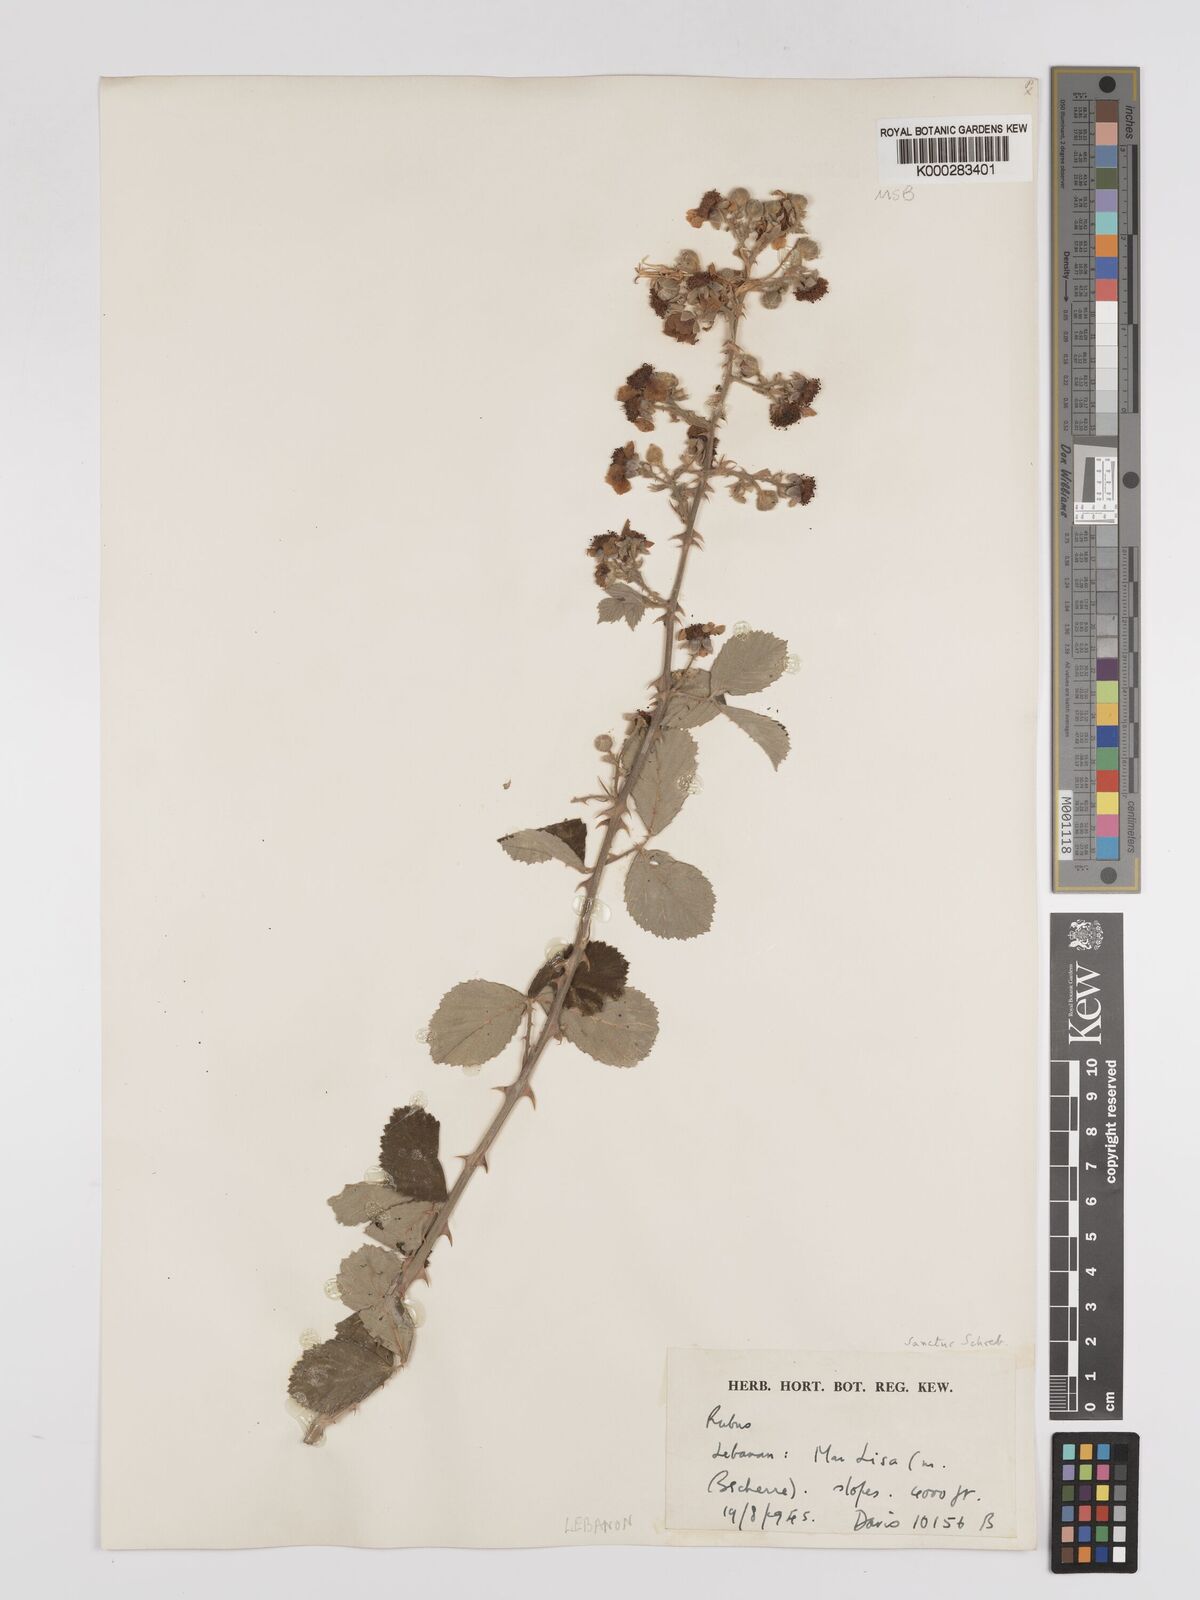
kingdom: Plantae
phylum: Tracheophyta
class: Magnoliopsida
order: Rosales
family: Rosaceae
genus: Rubus
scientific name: Rubus sanctus
